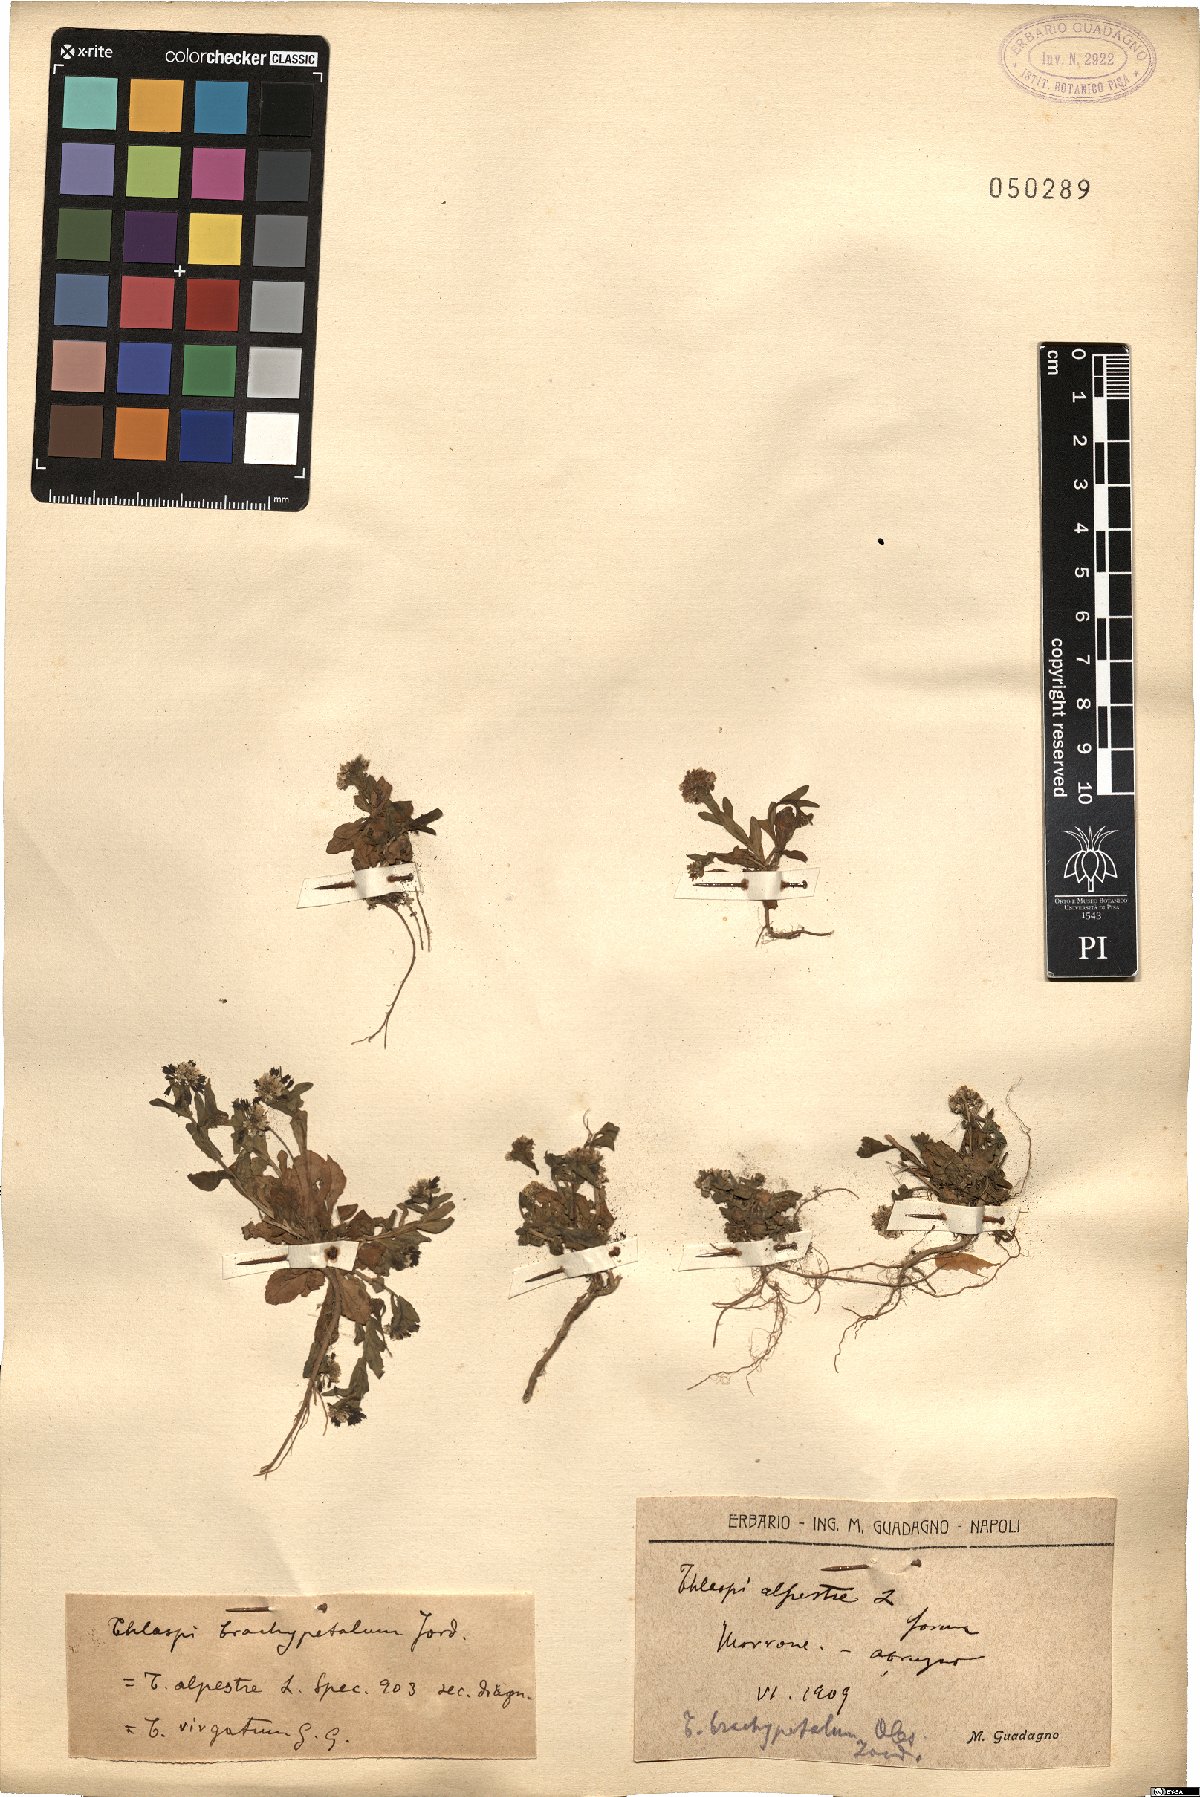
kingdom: Plantae
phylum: Tracheophyta
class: Magnoliopsida
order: Brassicales
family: Brassicaceae
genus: Noccaea
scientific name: Noccaea brachypetala
